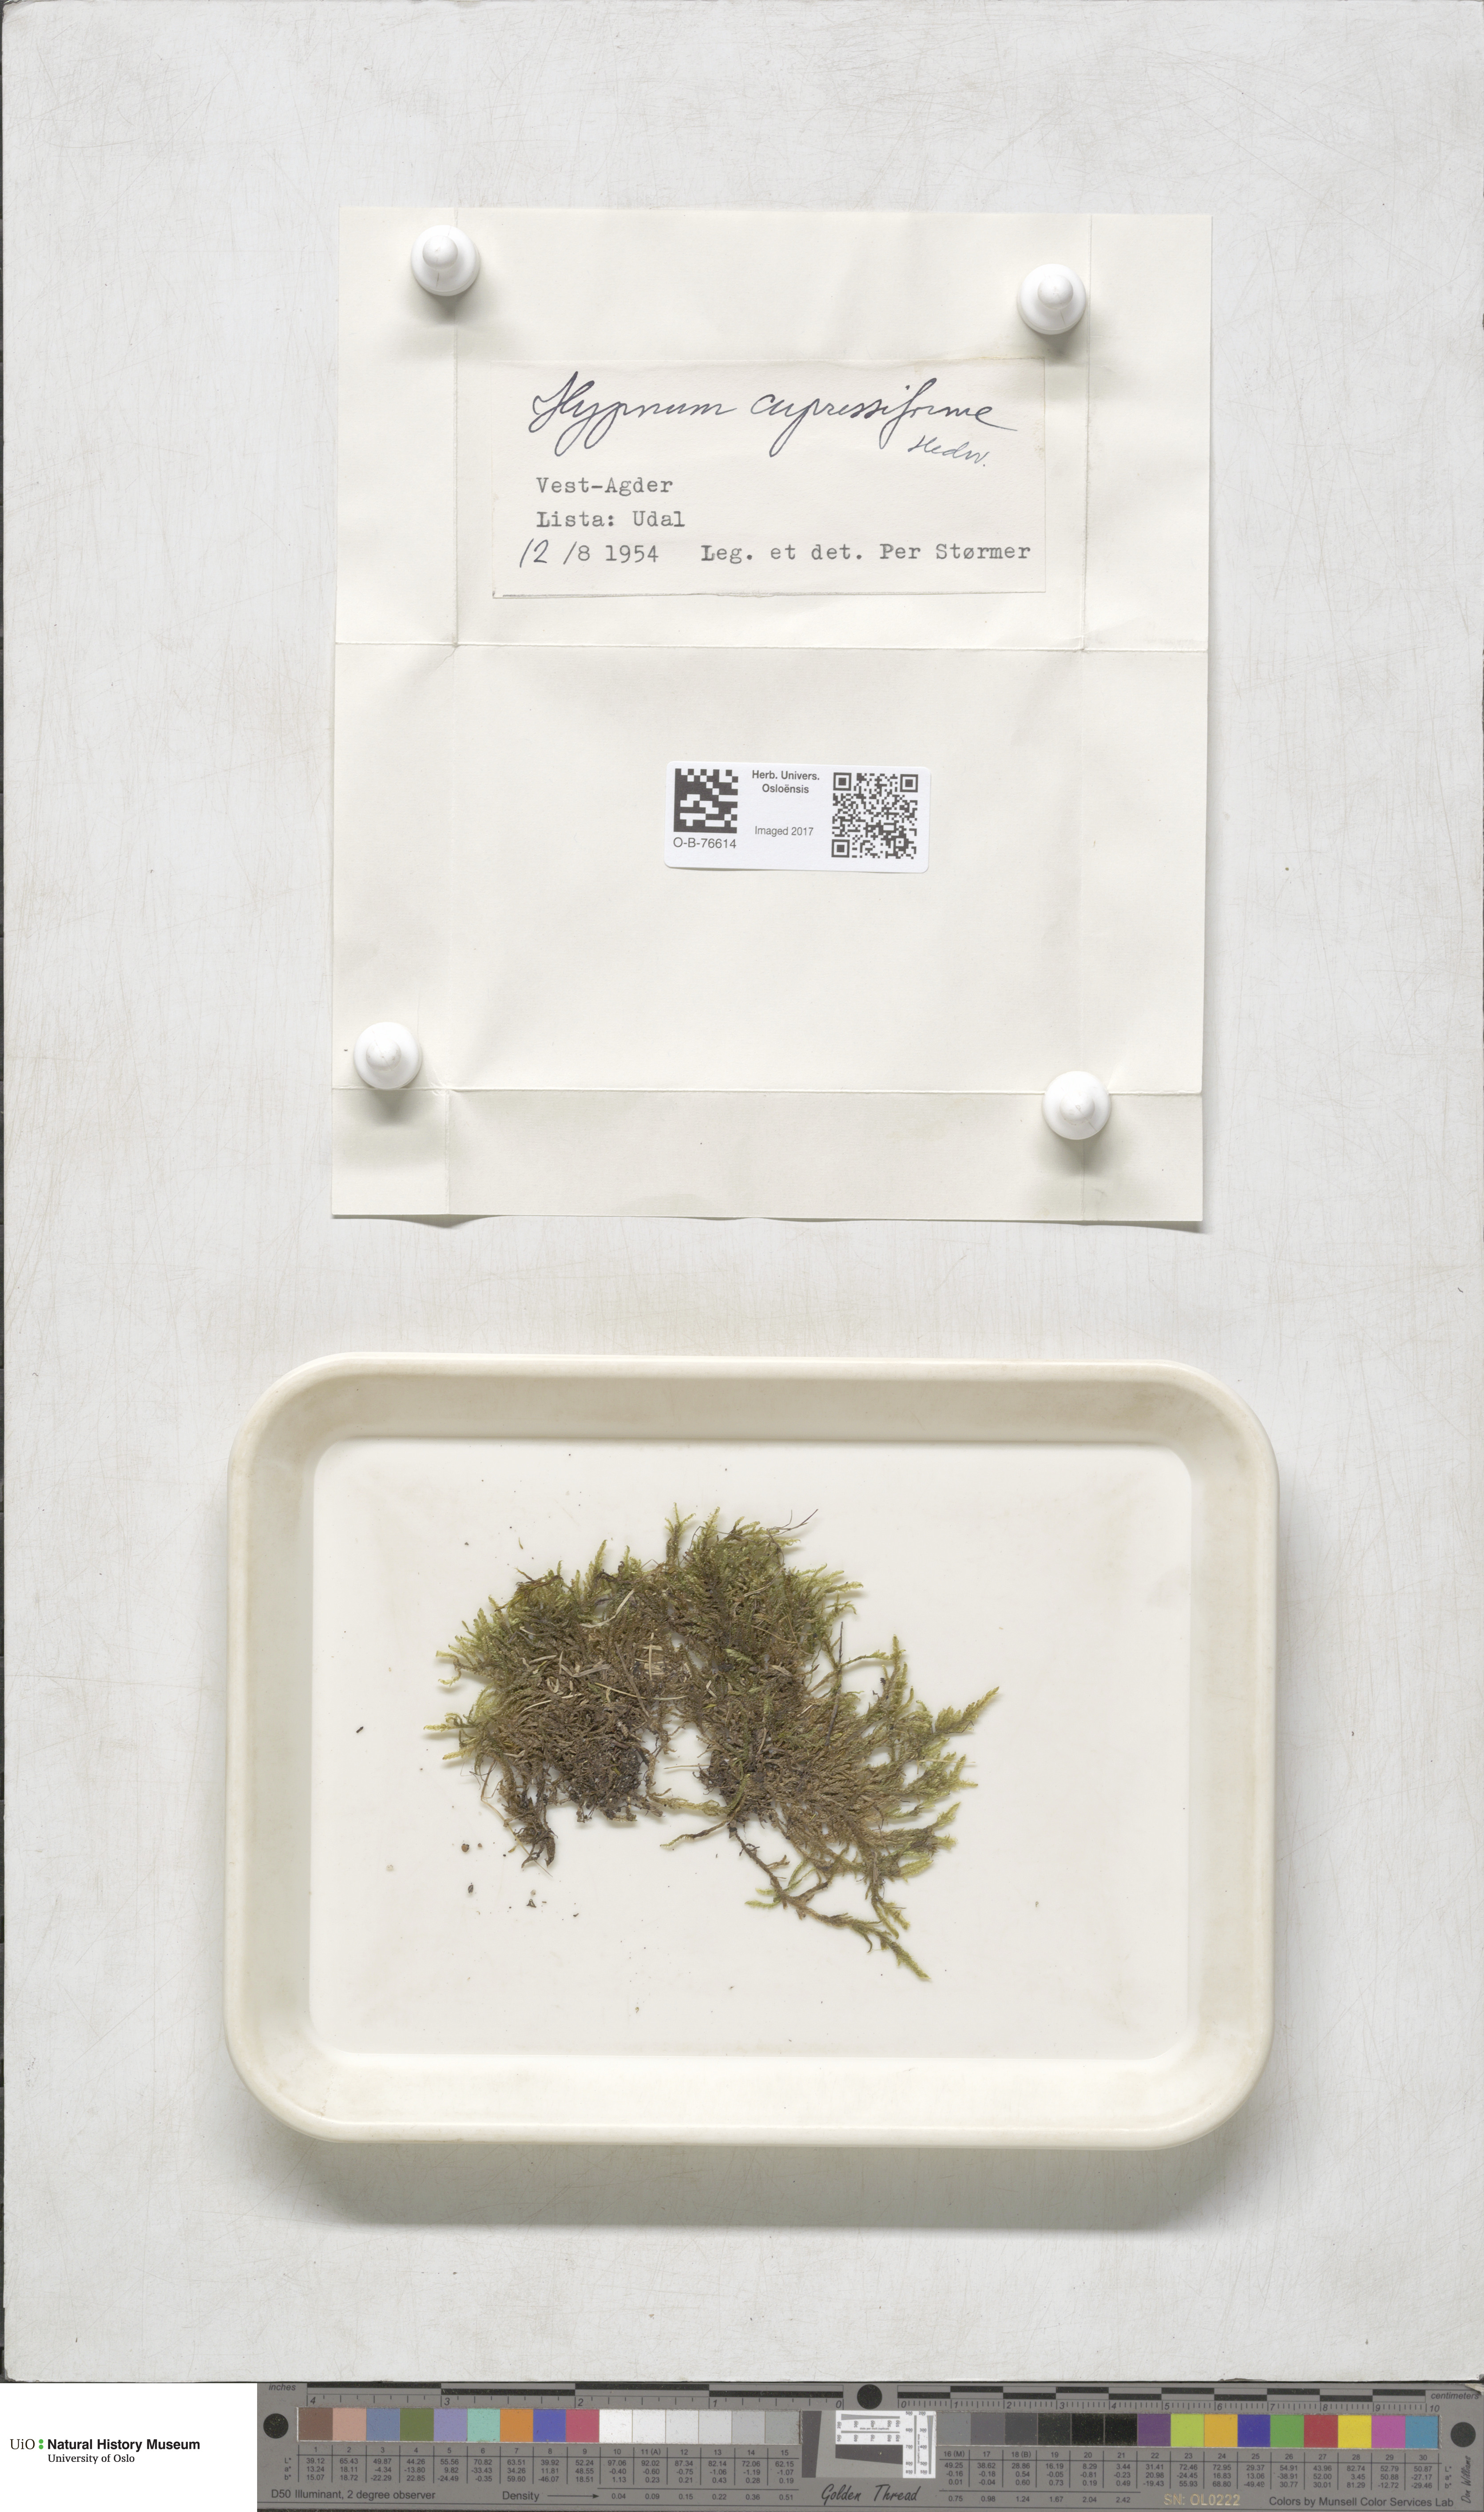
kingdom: Plantae
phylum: Bryophyta
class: Bryopsida
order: Hypnales
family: Hypnaceae
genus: Hypnum
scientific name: Hypnum cupressiforme
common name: Cypress-leaved plait-moss
